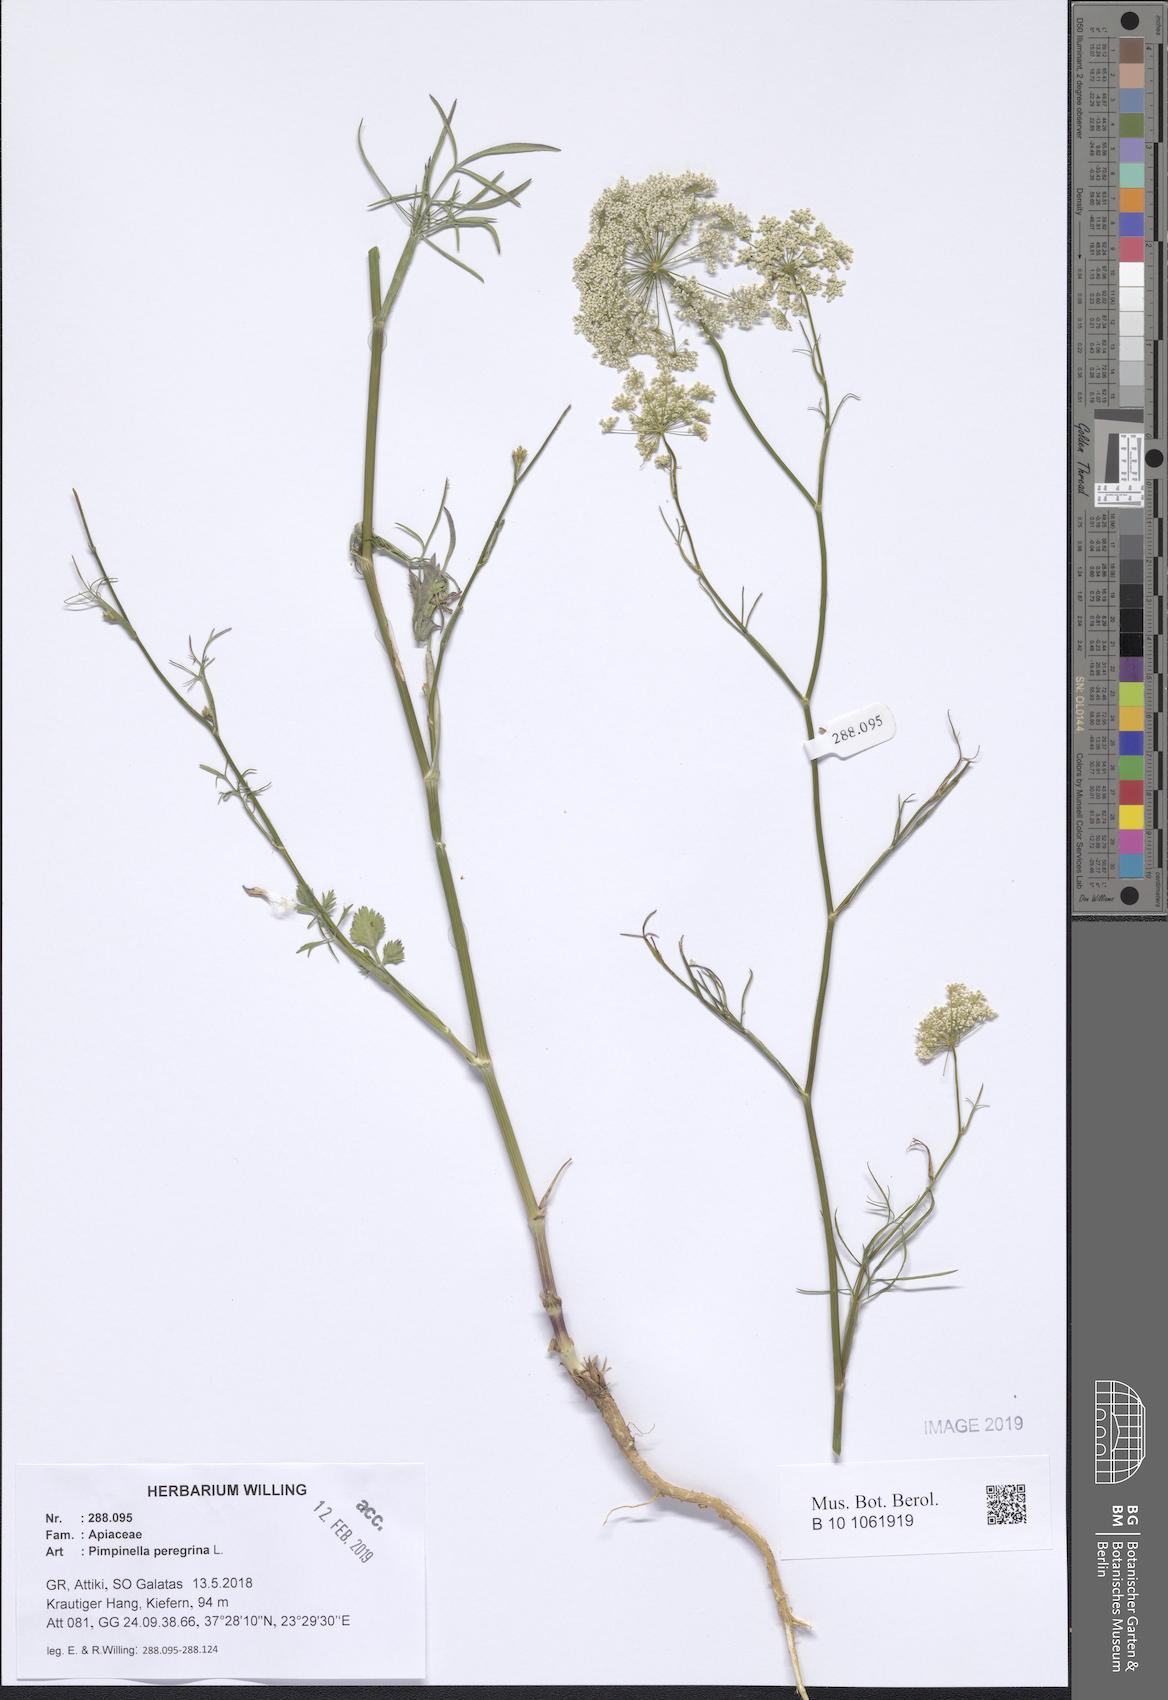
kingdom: Plantae
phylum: Tracheophyta
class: Magnoliopsida
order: Apiales
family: Apiaceae
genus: Pimpinella
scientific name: Pimpinella peregrina
